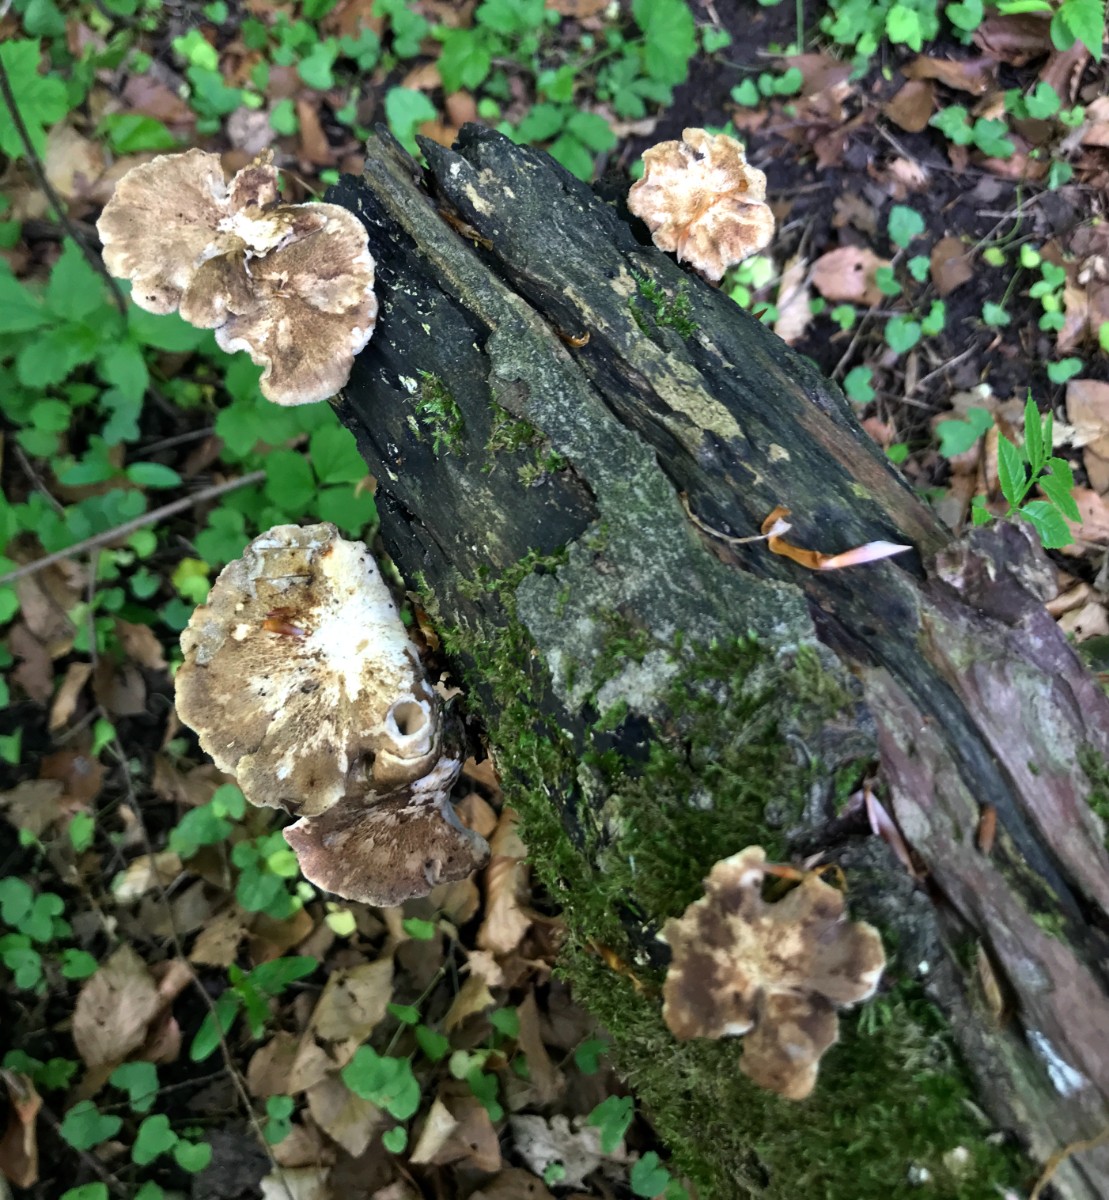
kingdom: Fungi
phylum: Basidiomycota
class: Agaricomycetes
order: Polyporales
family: Polyporaceae
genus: Lentinus
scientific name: Lentinus substrictus
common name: forårs-stilkporesvamp
